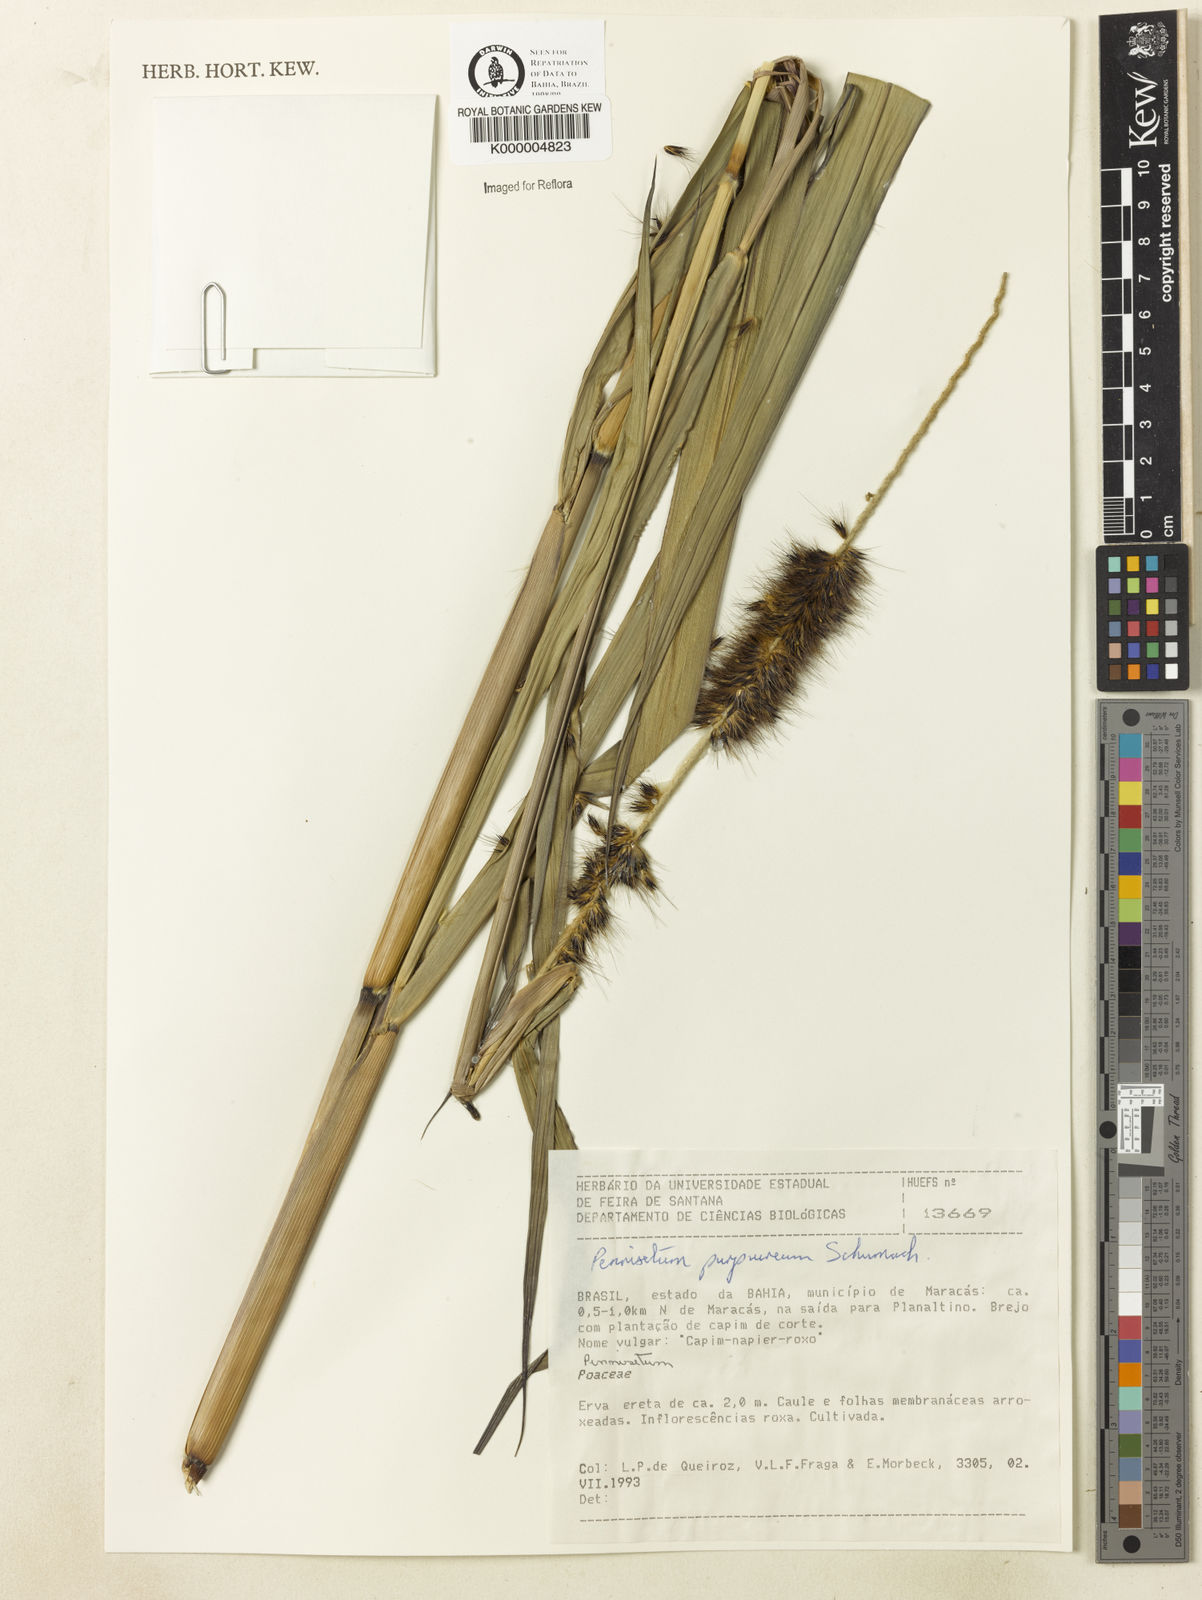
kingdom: Plantae
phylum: Tracheophyta
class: Liliopsida
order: Poales
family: Poaceae
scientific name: Poaceae
